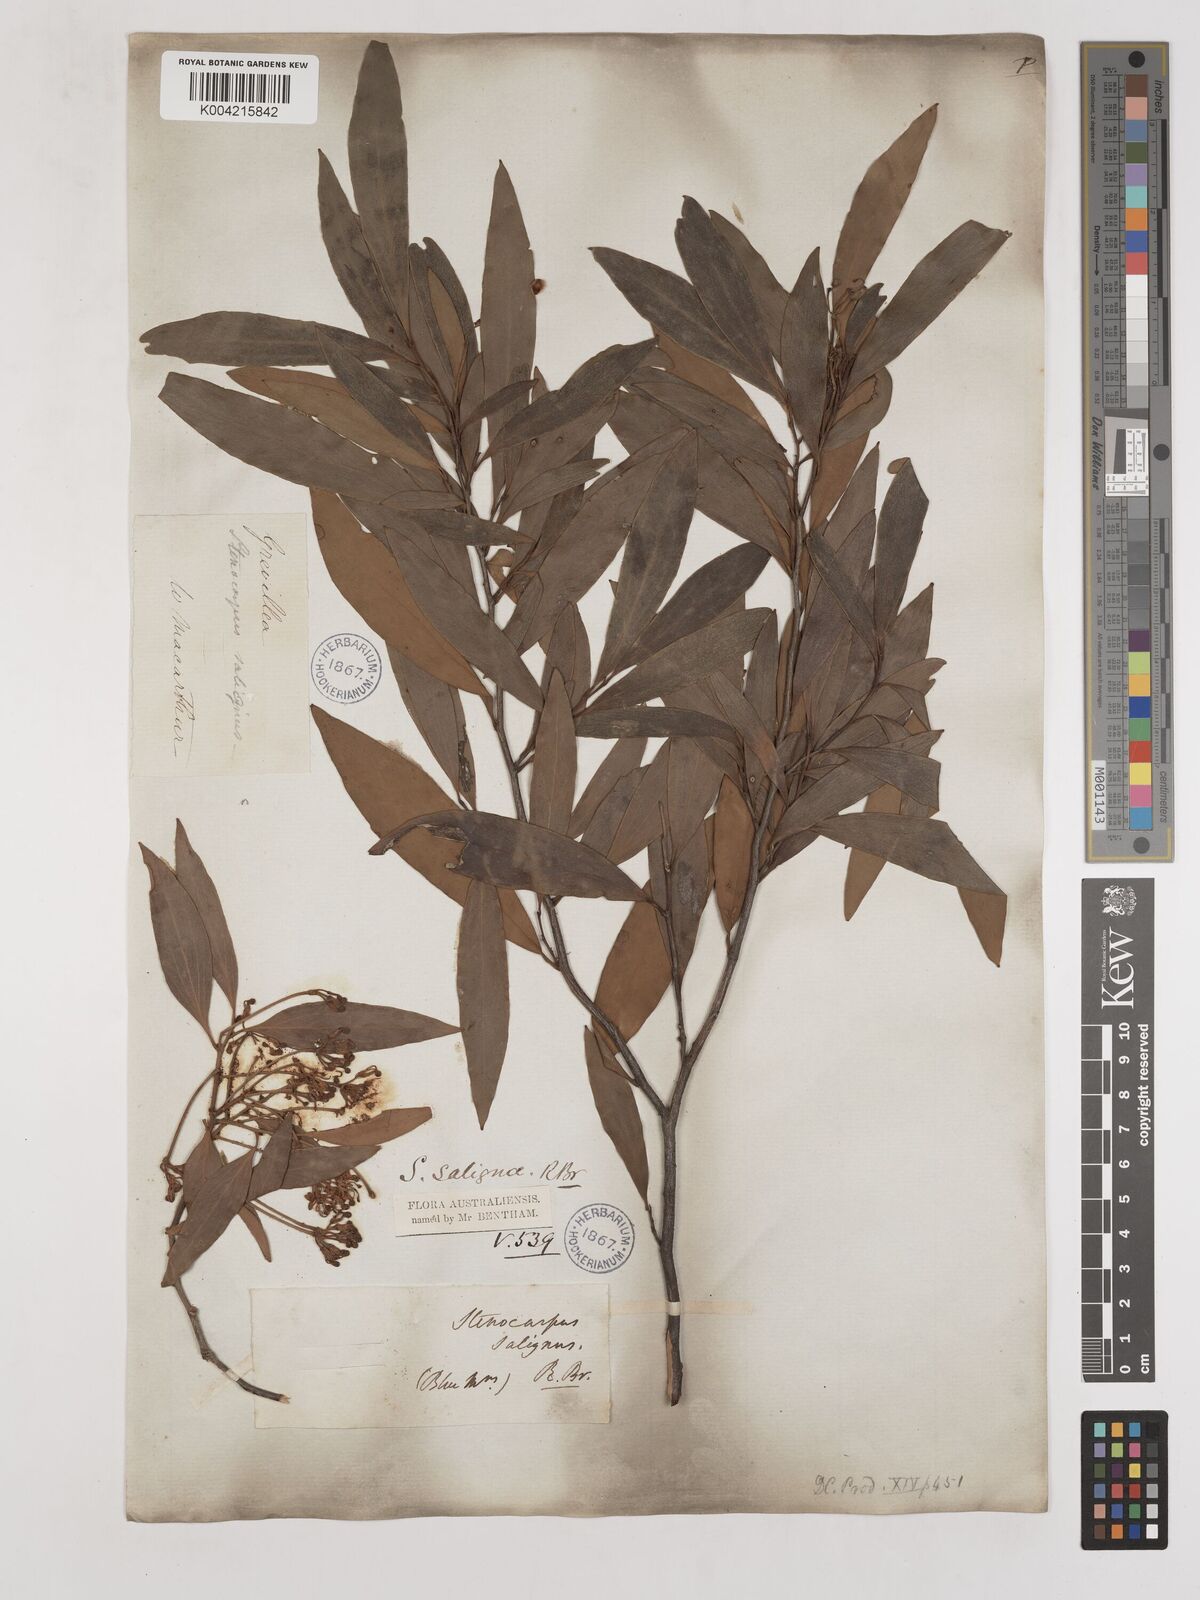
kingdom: Plantae
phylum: Tracheophyta
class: Magnoliopsida
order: Proteales
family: Proteaceae
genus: Stenocarpus
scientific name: Stenocarpus salignus
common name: Red silky-oak
